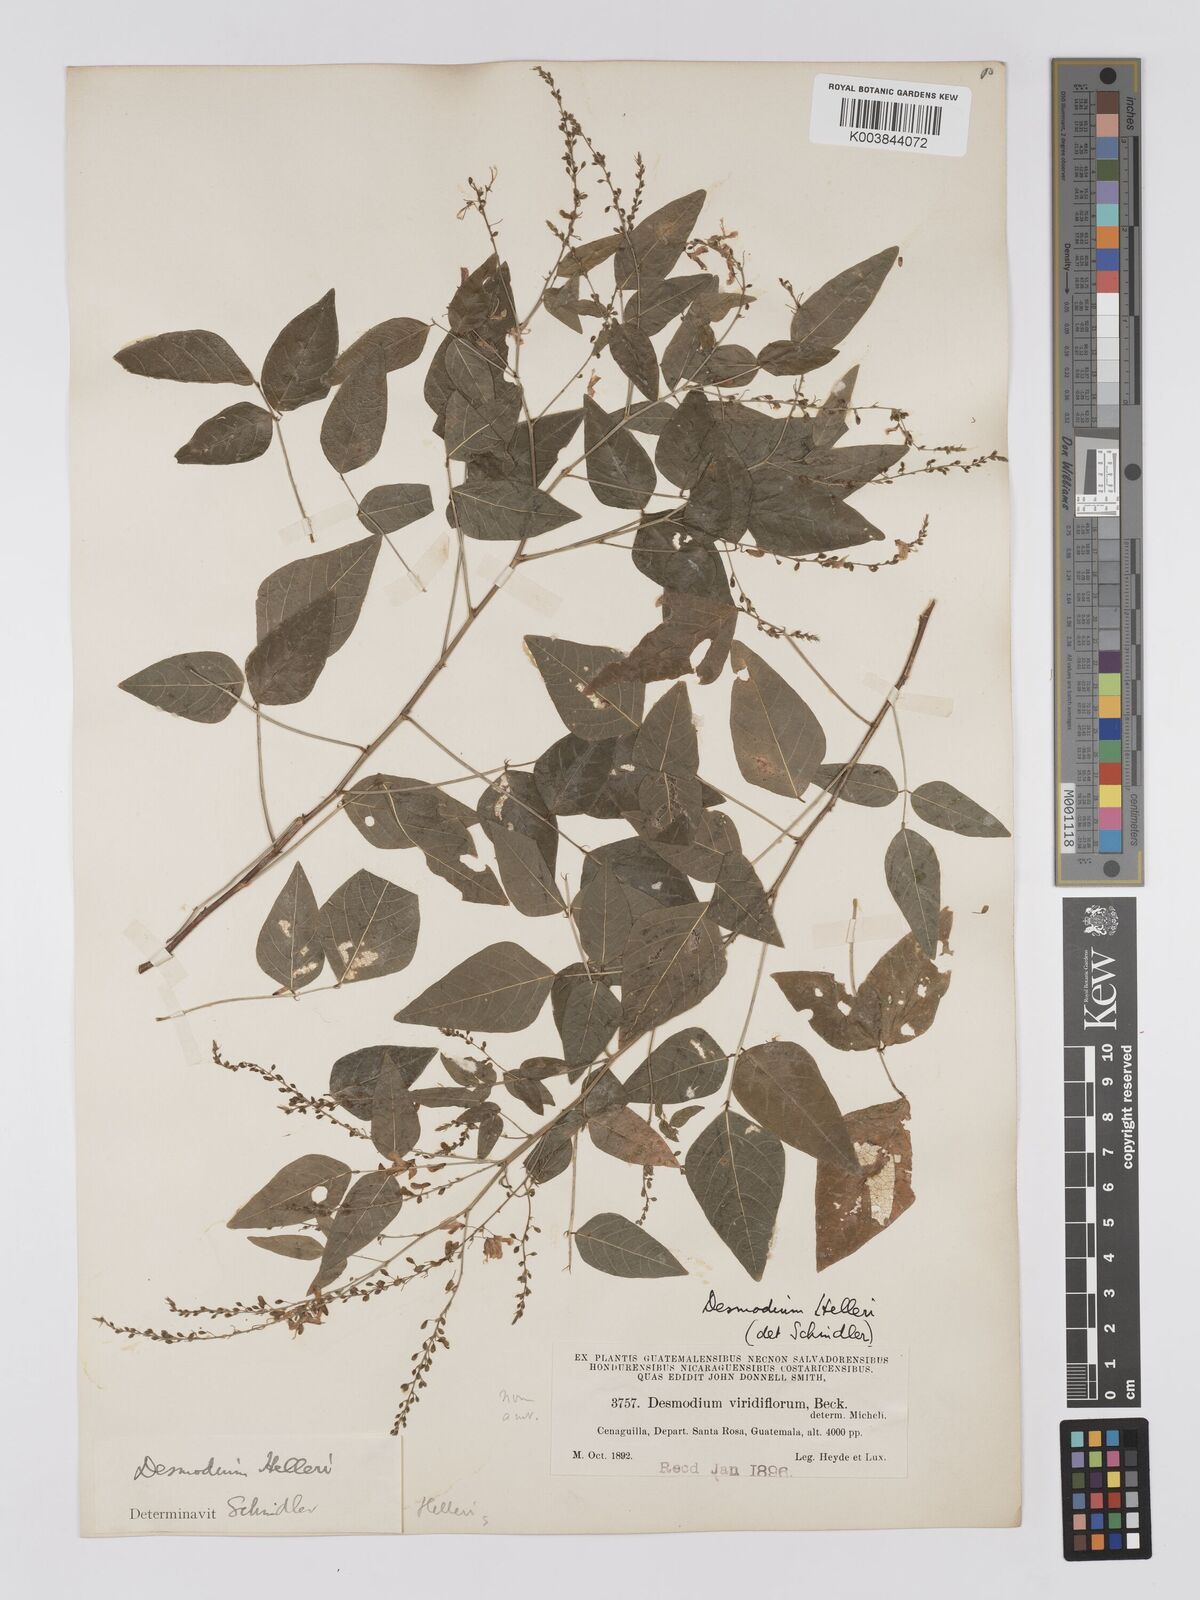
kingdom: Plantae
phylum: Tracheophyta
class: Magnoliopsida
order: Fabales
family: Fabaceae
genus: Desmodium
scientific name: Desmodium helleri
